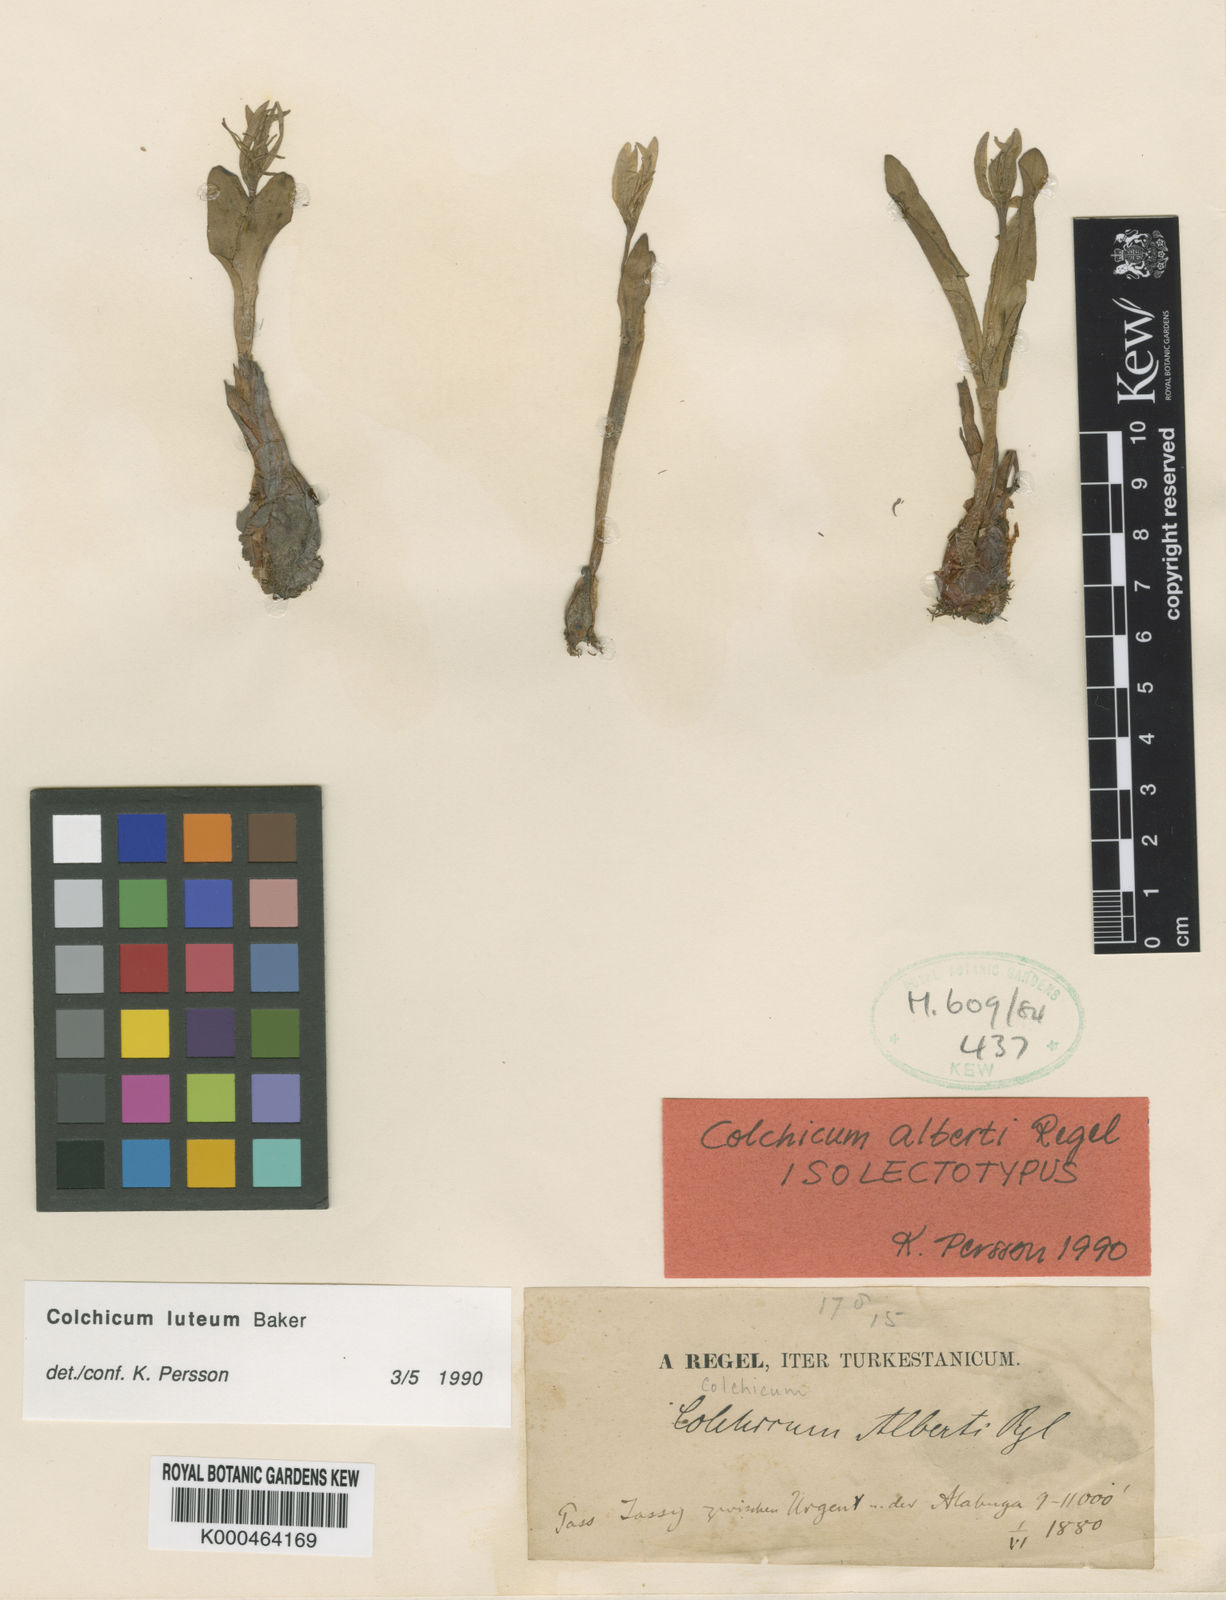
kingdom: Plantae
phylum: Tracheophyta
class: Liliopsida
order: Liliales
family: Colchicaceae
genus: Colchicum
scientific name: Colchicum luteum
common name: Indian colchicum
